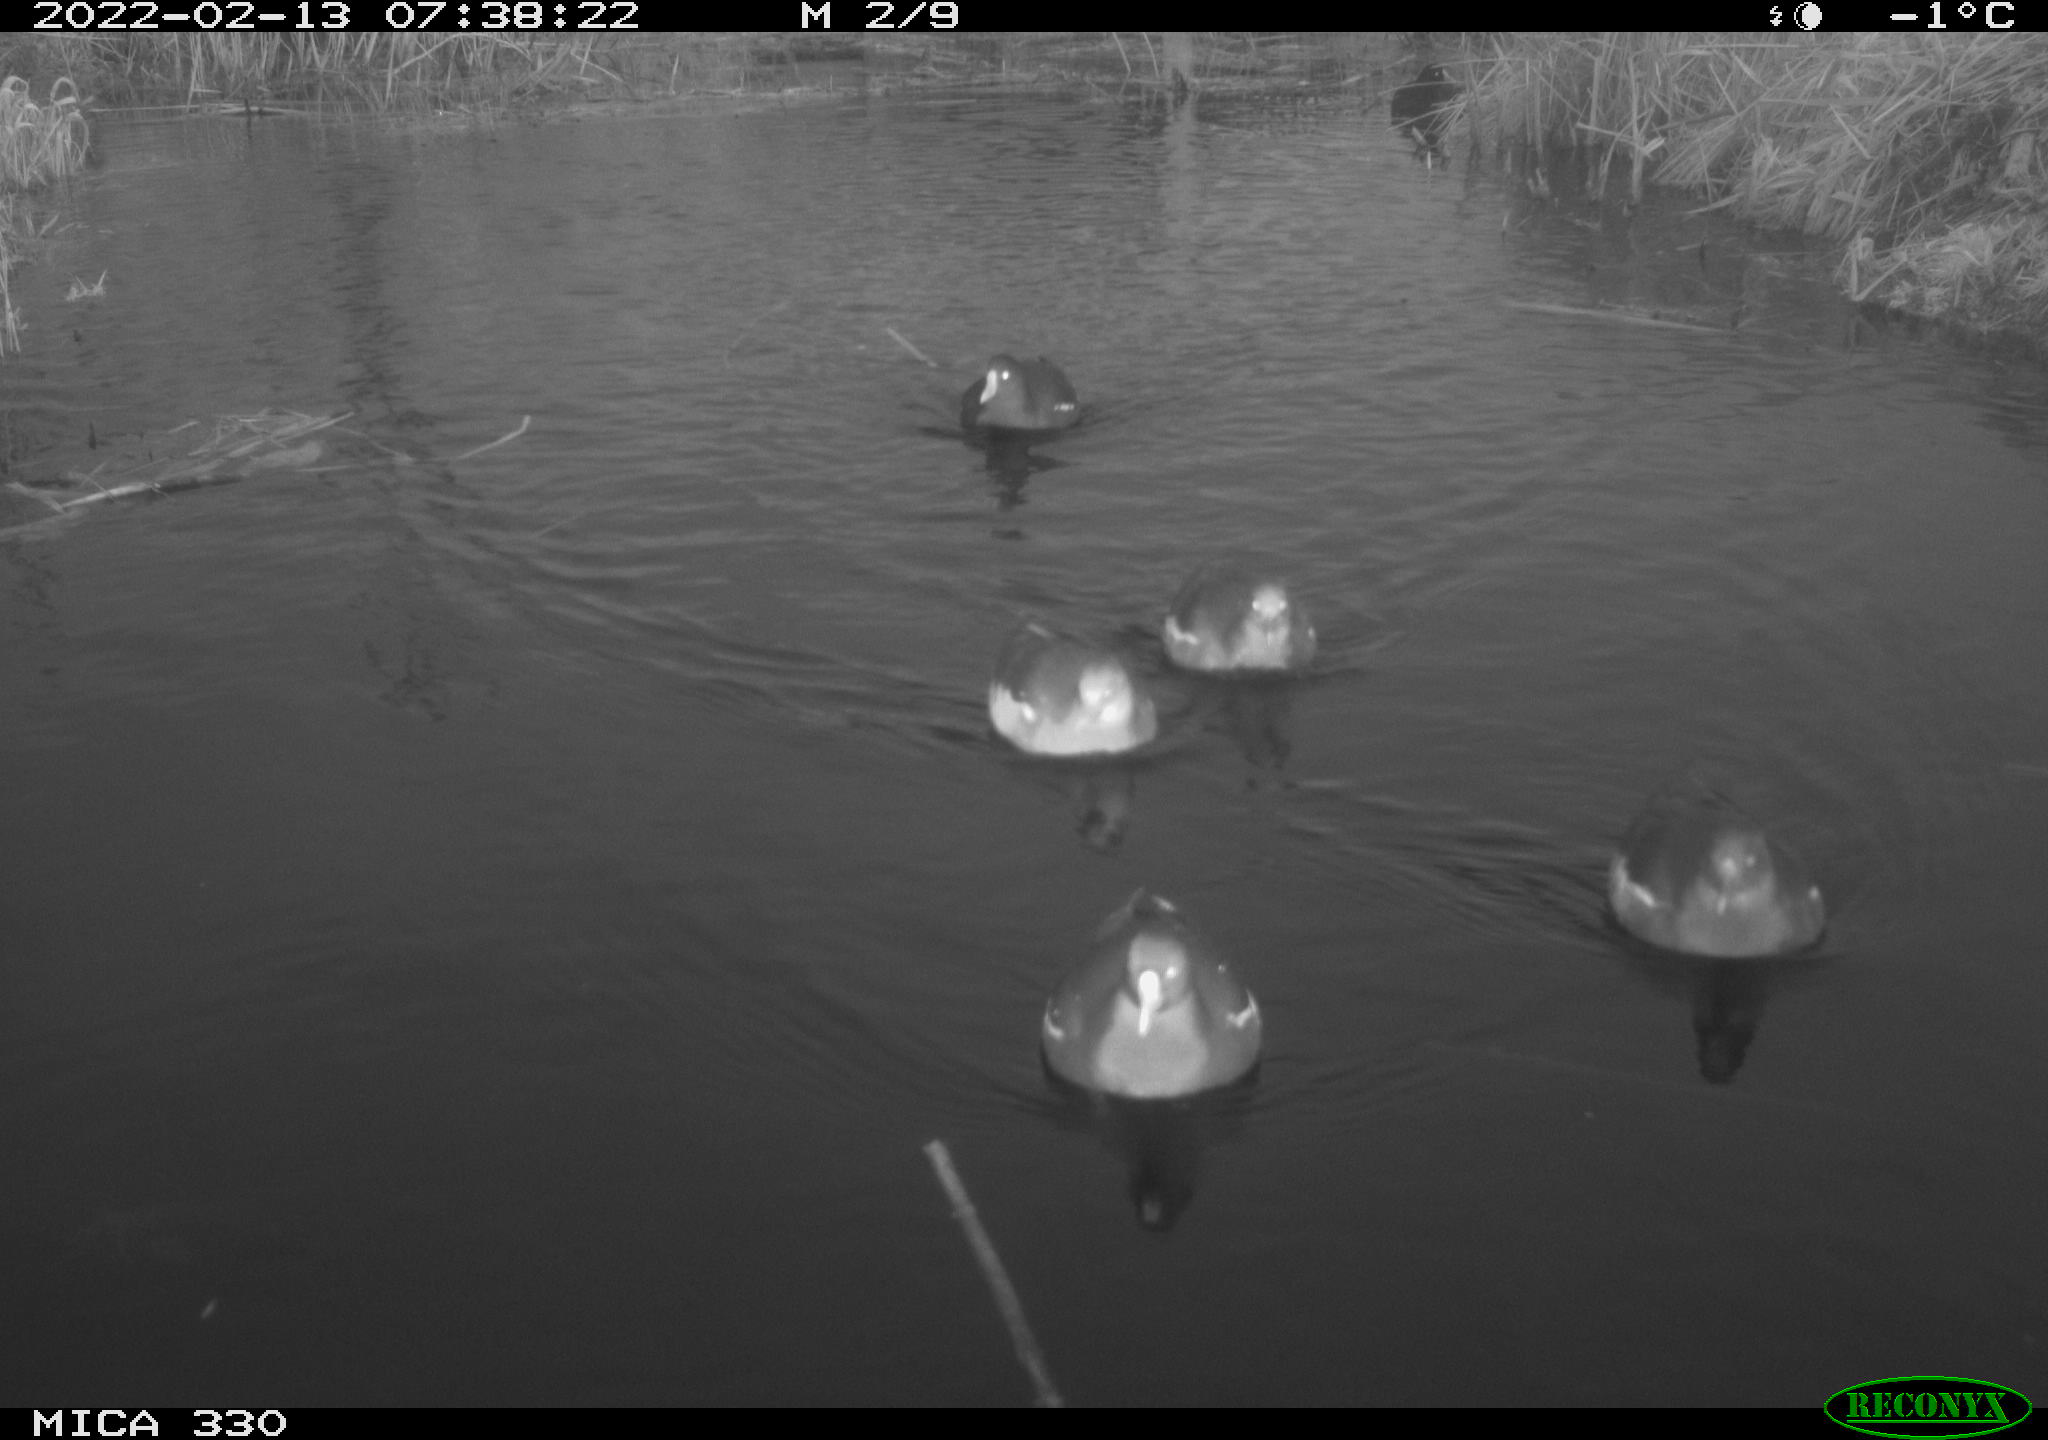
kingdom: Animalia
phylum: Chordata
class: Aves
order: Gruiformes
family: Rallidae
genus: Gallinula
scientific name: Gallinula chloropus
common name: Common moorhen
